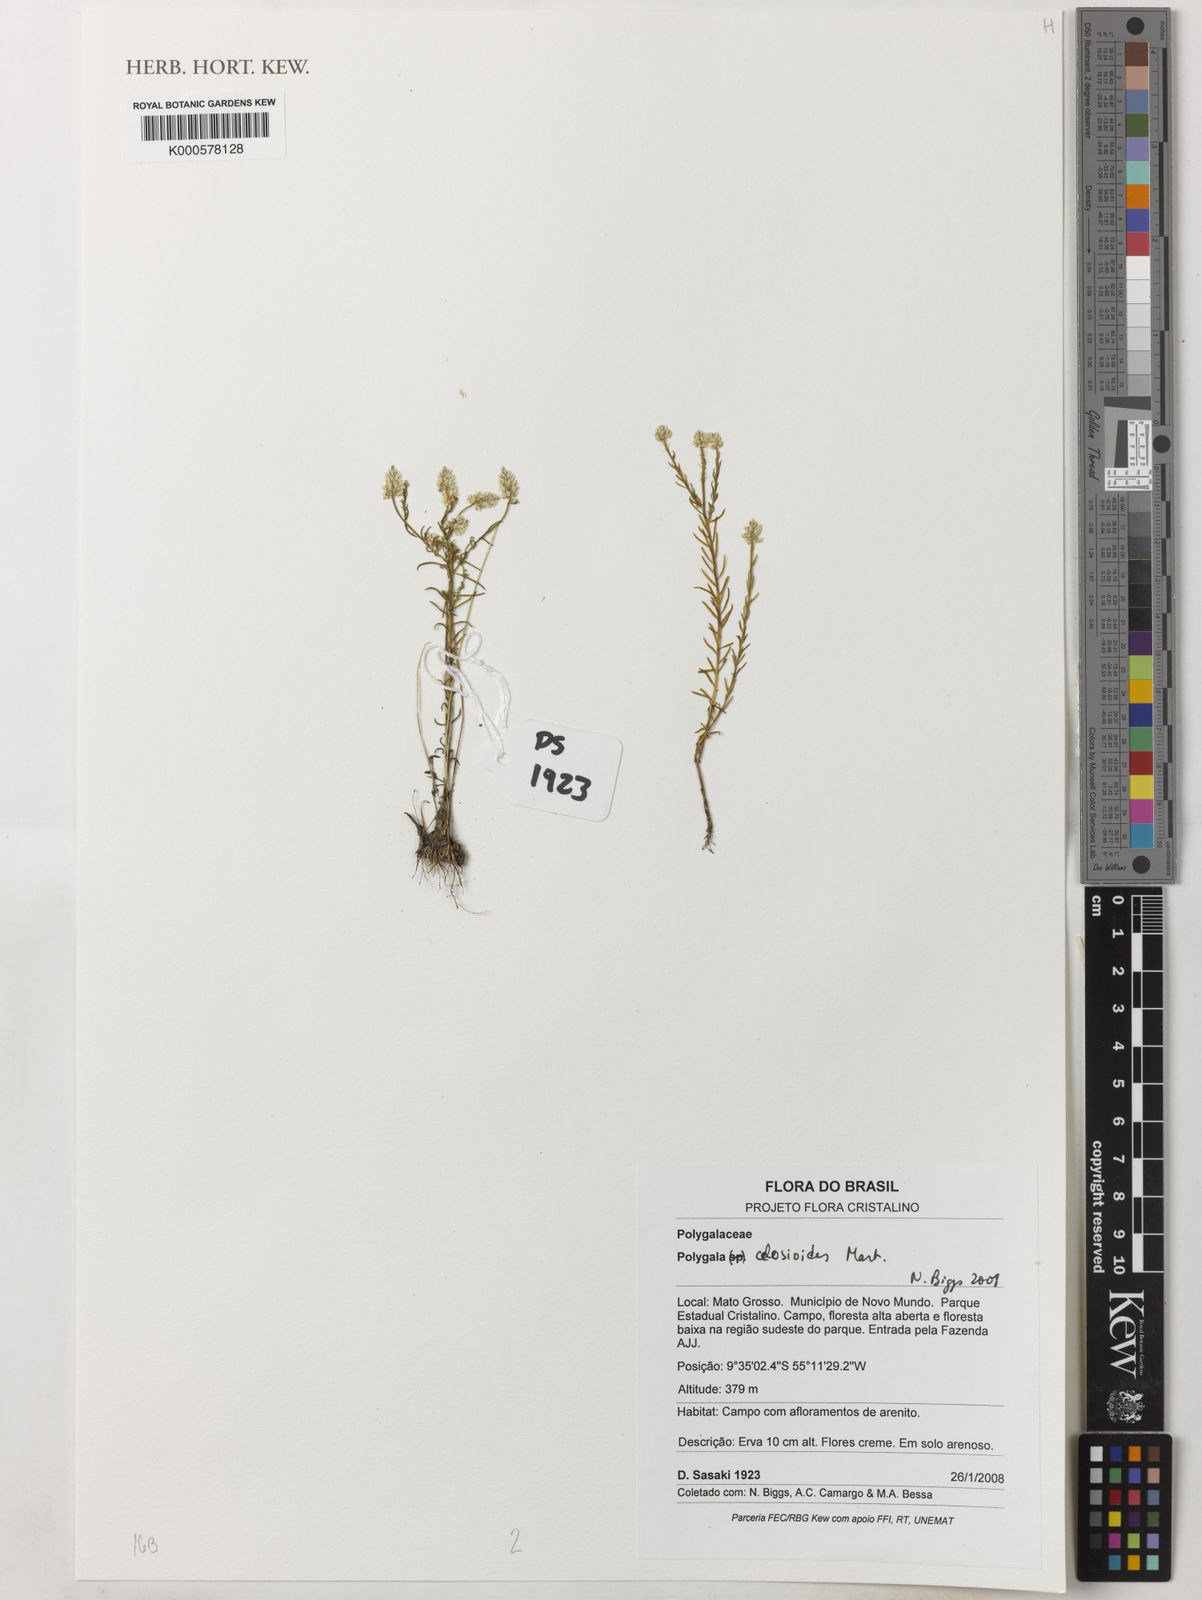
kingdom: Plantae
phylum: Tracheophyta
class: Magnoliopsida
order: Fabales
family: Polygalaceae
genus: Polygala
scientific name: Polygala
